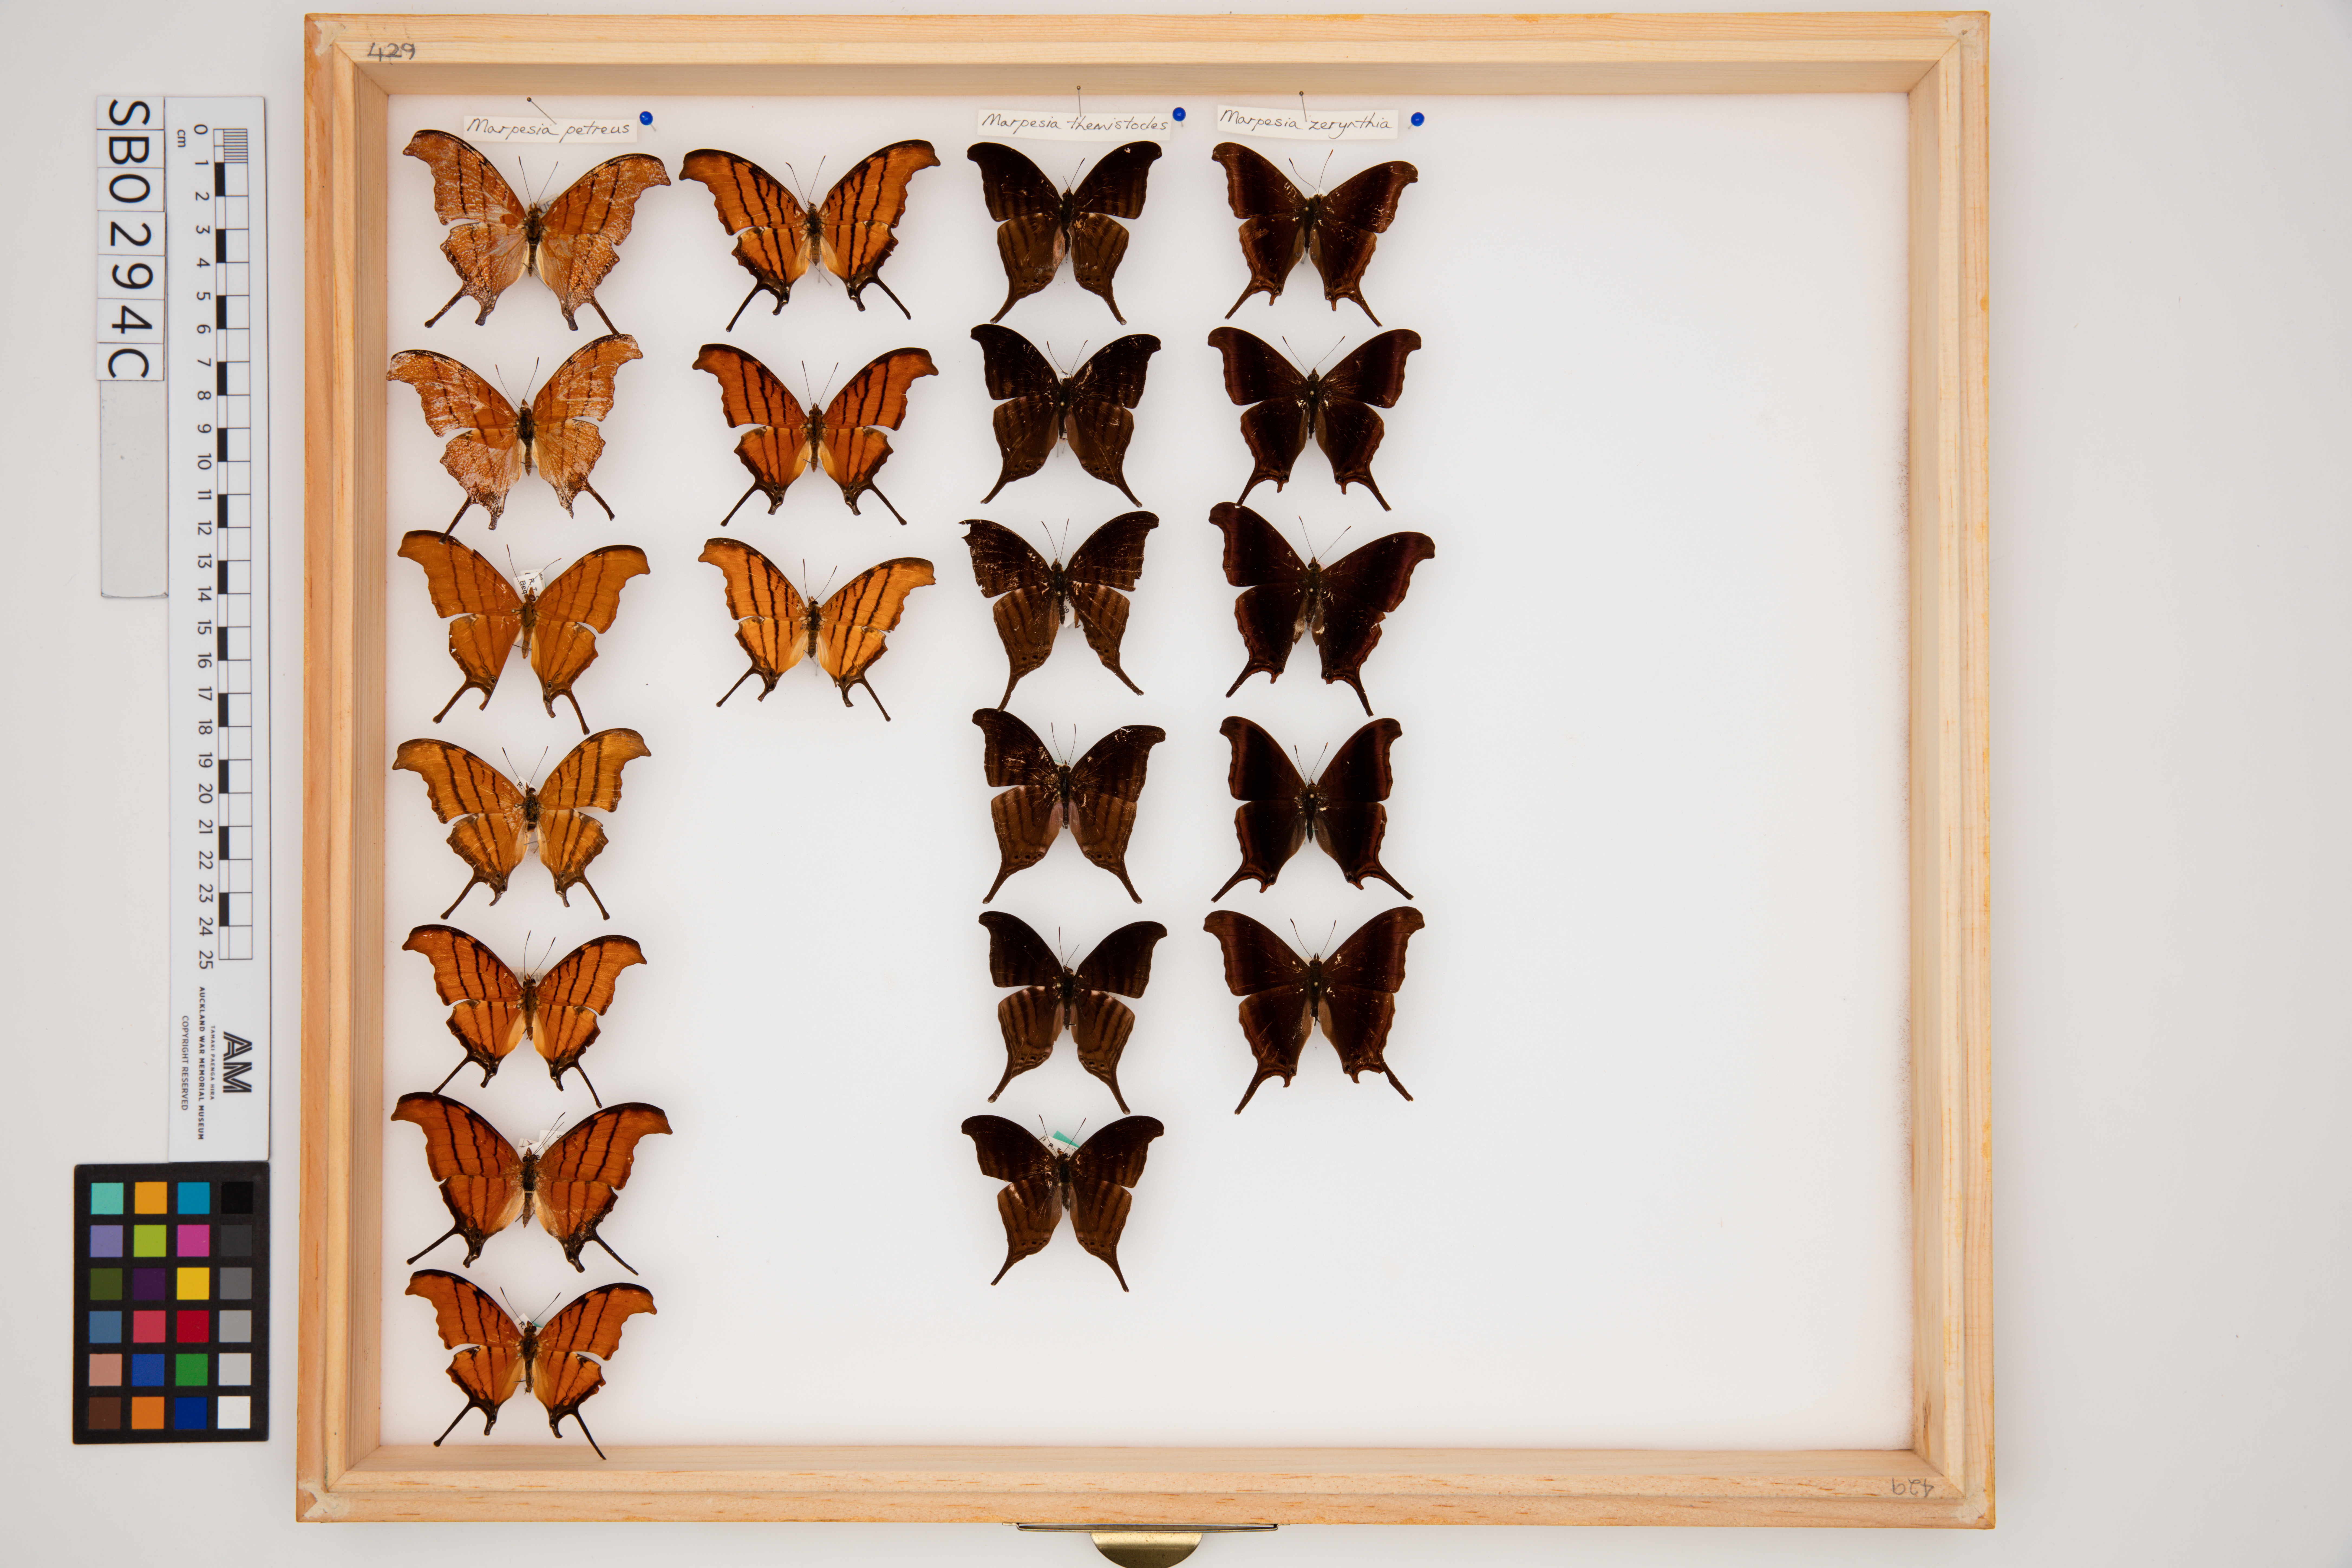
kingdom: Animalia
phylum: Arthropoda
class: Insecta
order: Lepidoptera
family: Nymphalidae
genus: Marpesia
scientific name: Marpesia petreus
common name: Red dagger wing
